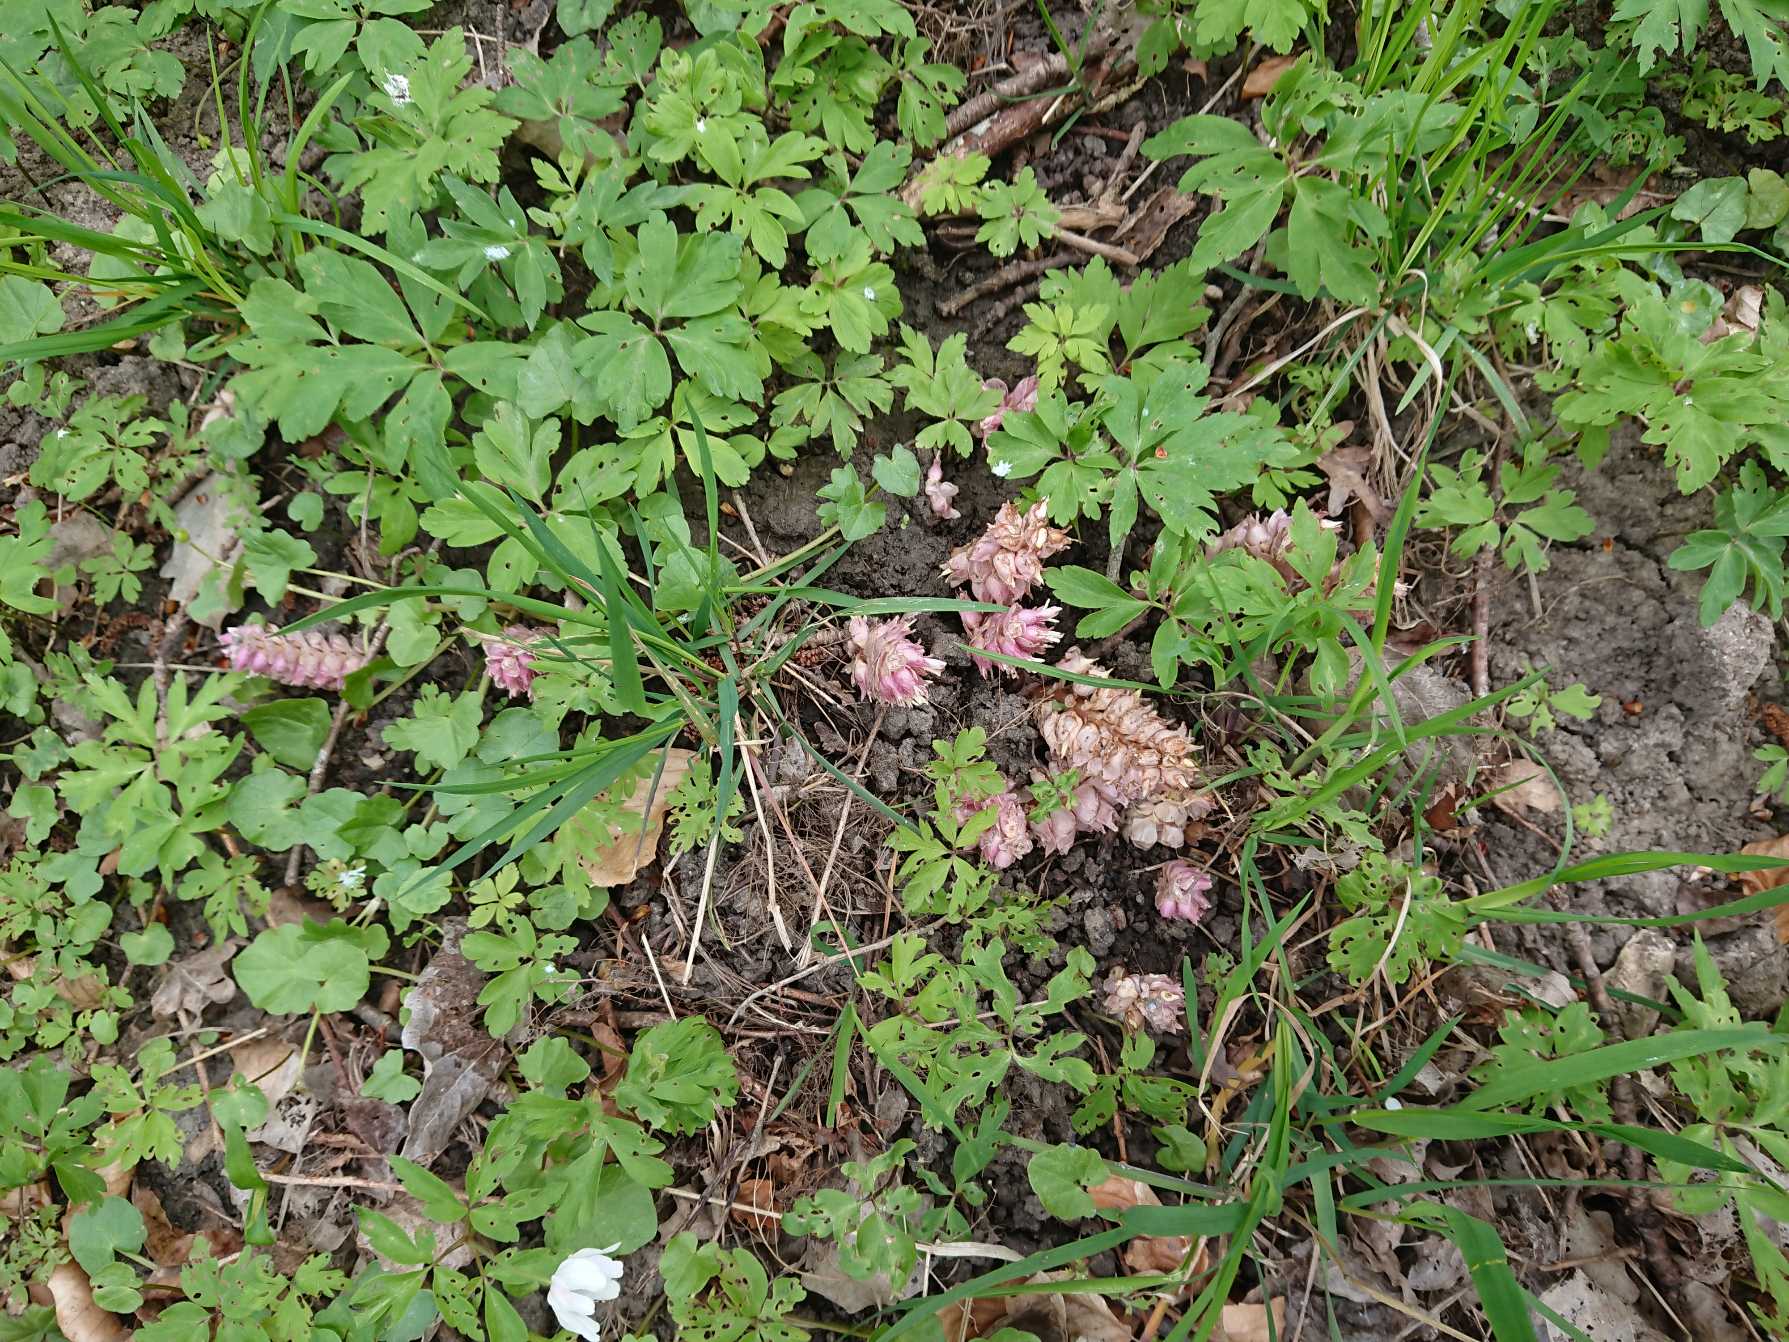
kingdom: Plantae
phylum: Tracheophyta
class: Magnoliopsida
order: Lamiales
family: Orobanchaceae
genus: Lathraea
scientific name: Lathraea squamaria
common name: Skælrod
